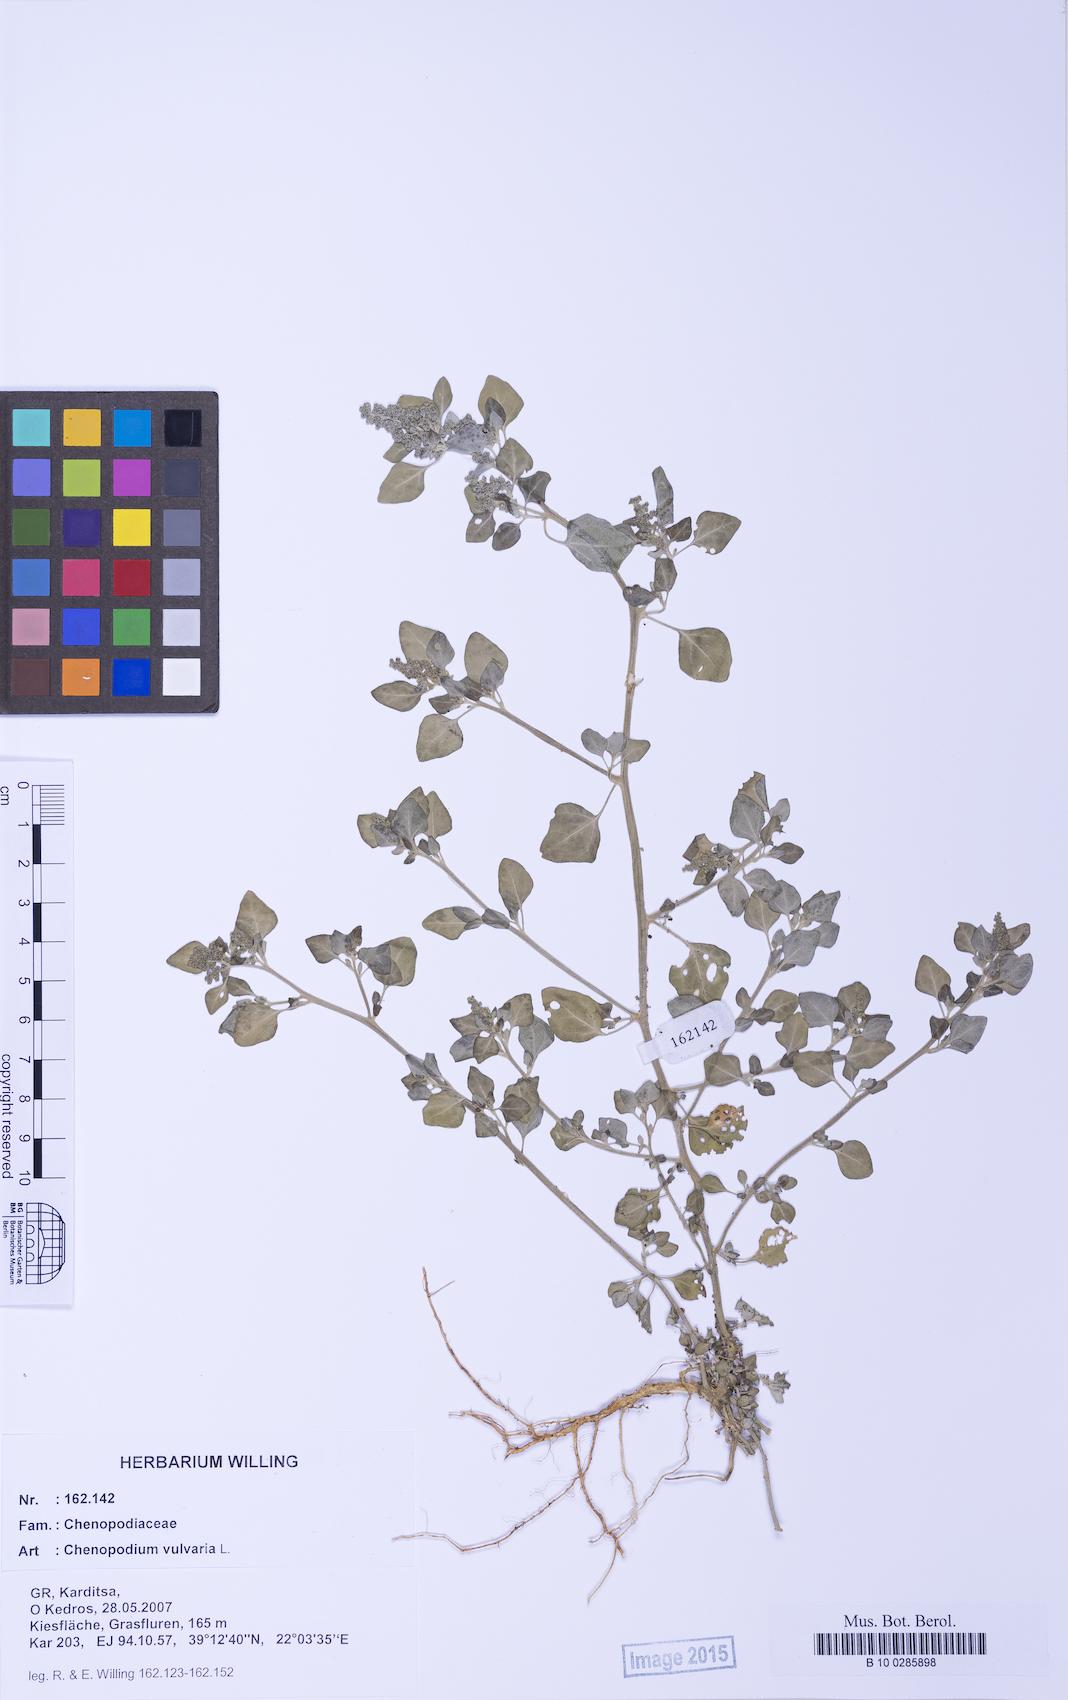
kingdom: Plantae
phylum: Tracheophyta
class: Magnoliopsida
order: Caryophyllales
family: Amaranthaceae
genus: Chenopodium
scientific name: Chenopodium vulvaria
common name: Stinking goosefoot
